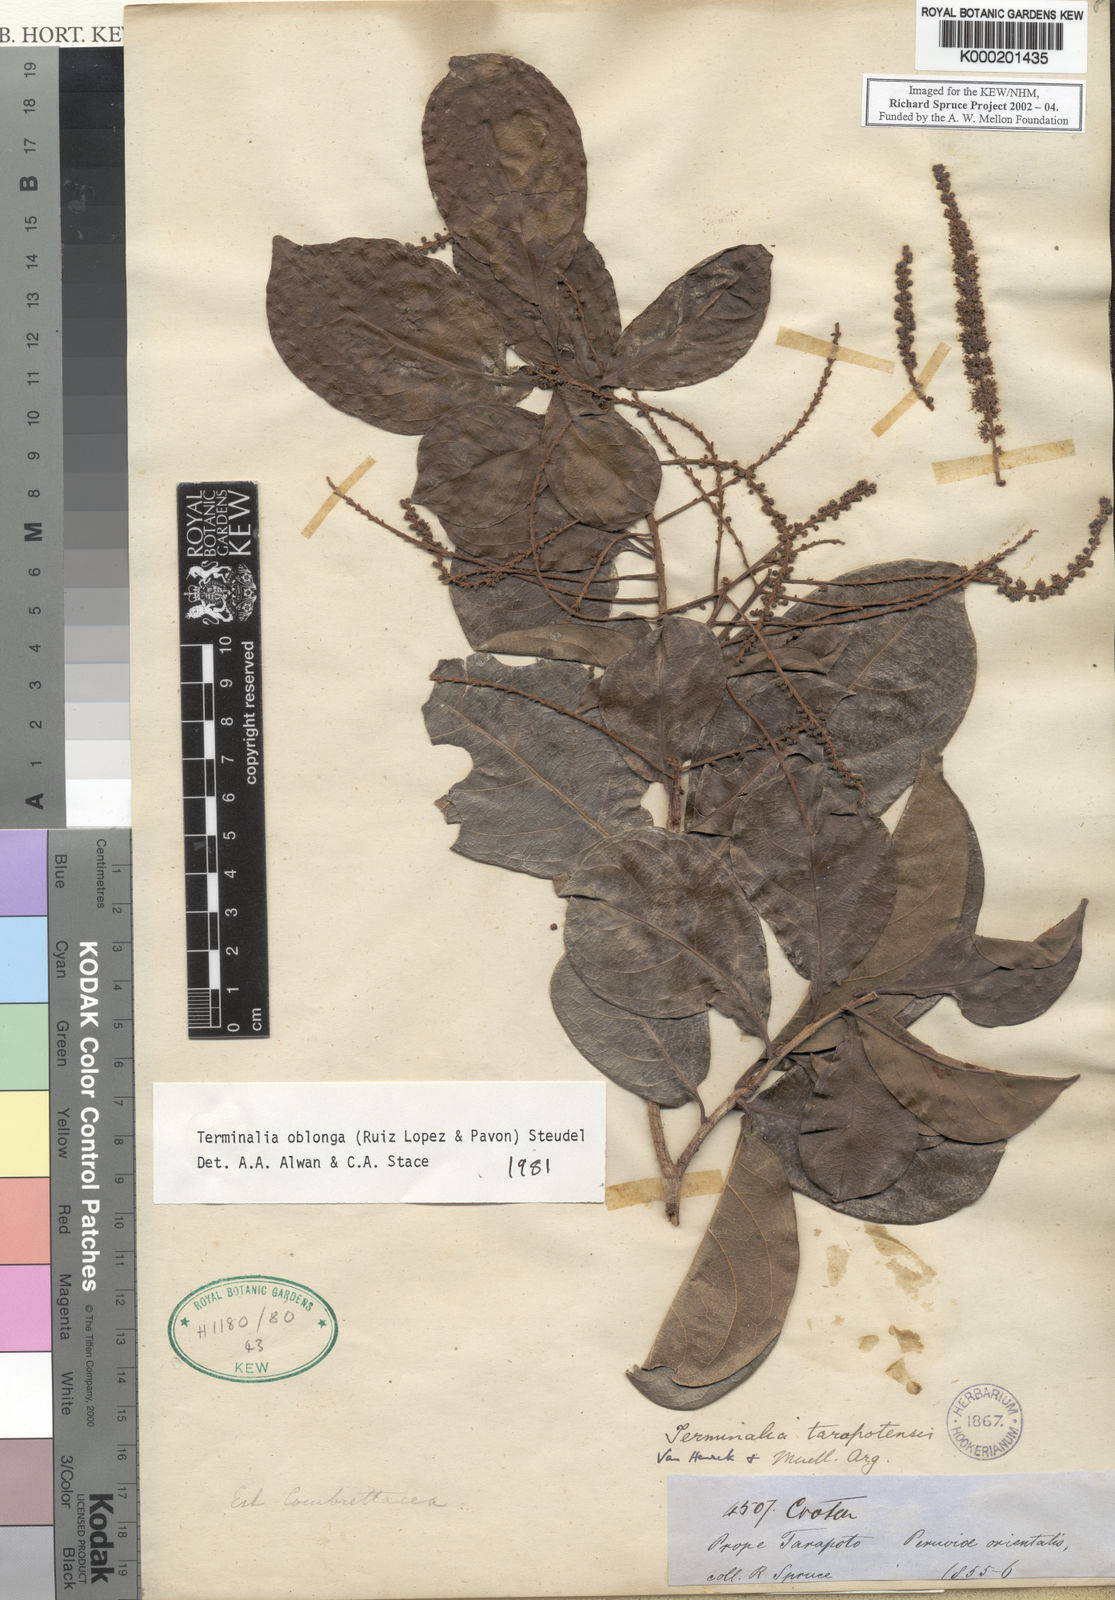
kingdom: Plantae
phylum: Tracheophyta
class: Magnoliopsida
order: Myrtales
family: Combretaceae
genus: Terminalia
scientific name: Terminalia oblonga
